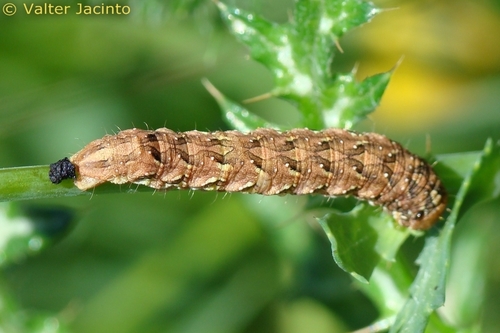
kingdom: Animalia
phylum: Arthropoda
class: Insecta
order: Lepidoptera
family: Noctuidae
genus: Cucullia
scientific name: Cucullia chamomillae
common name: Chamomile shark
